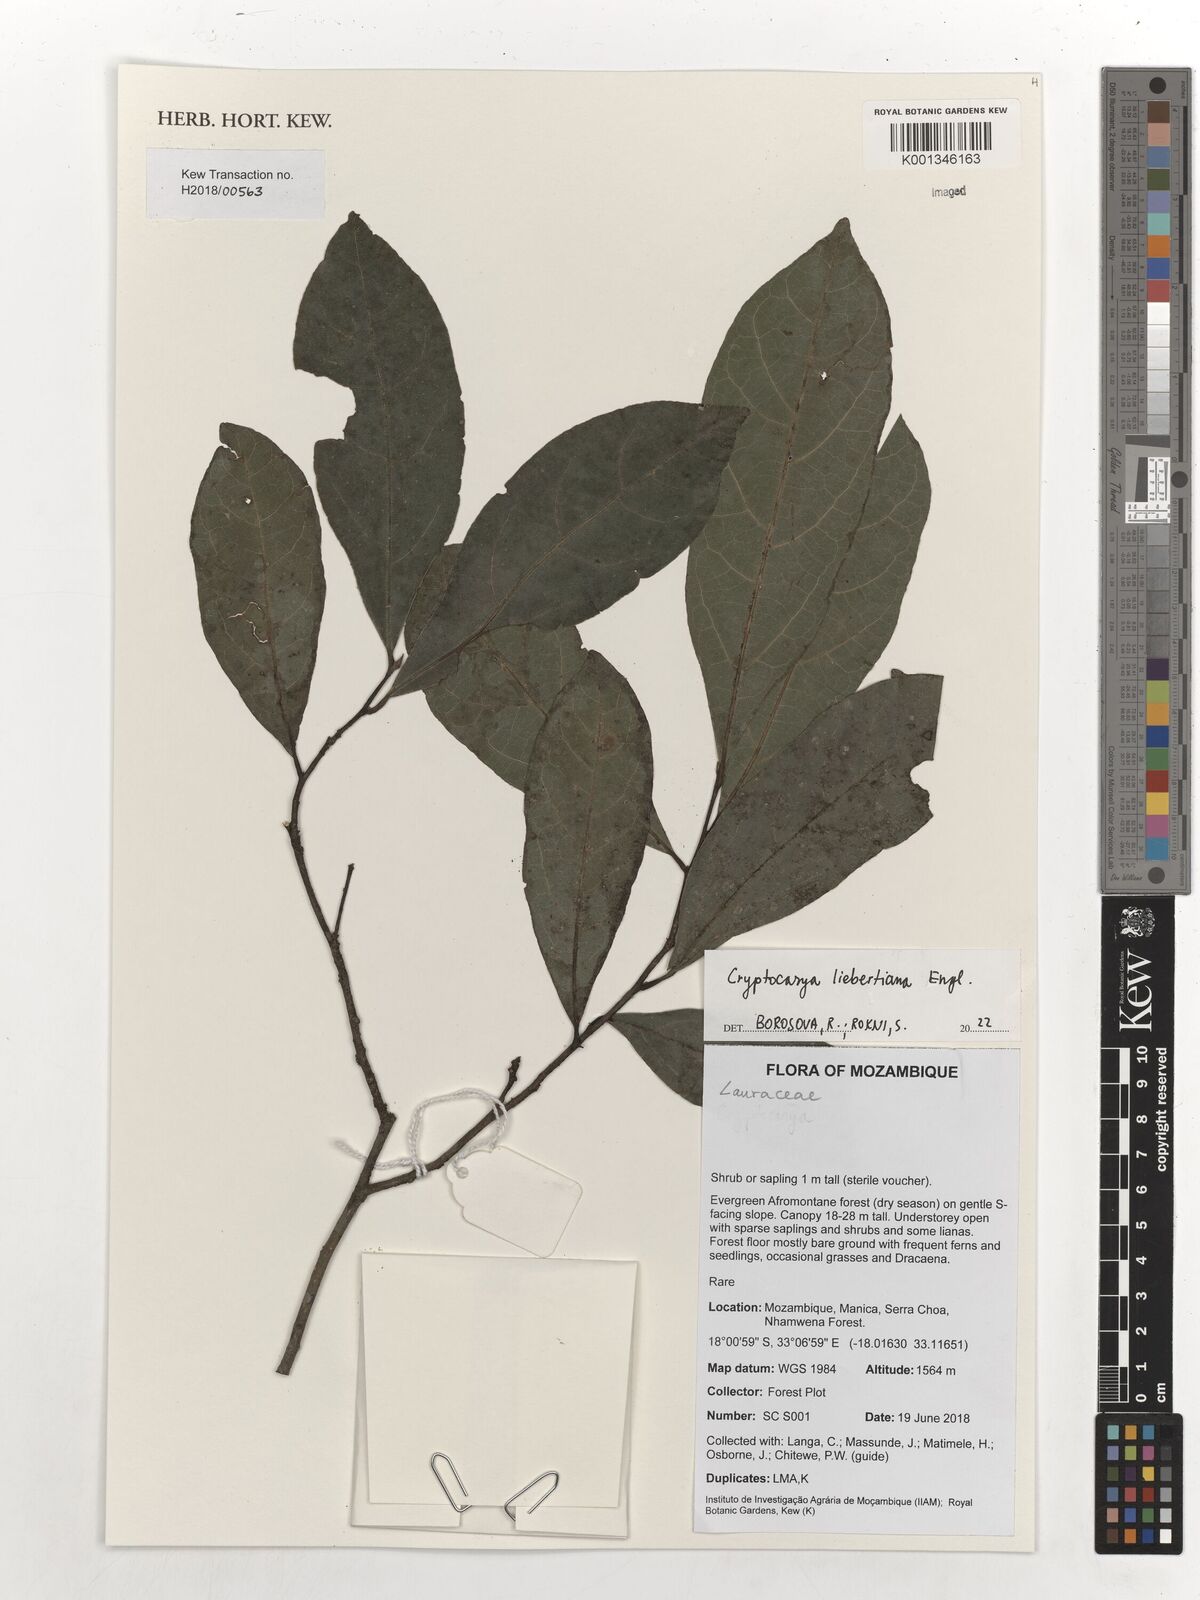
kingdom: Plantae
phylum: Tracheophyta
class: Magnoliopsida
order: Laurales
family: Lauraceae
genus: Cryptocarya
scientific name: Cryptocarya liebertiana
